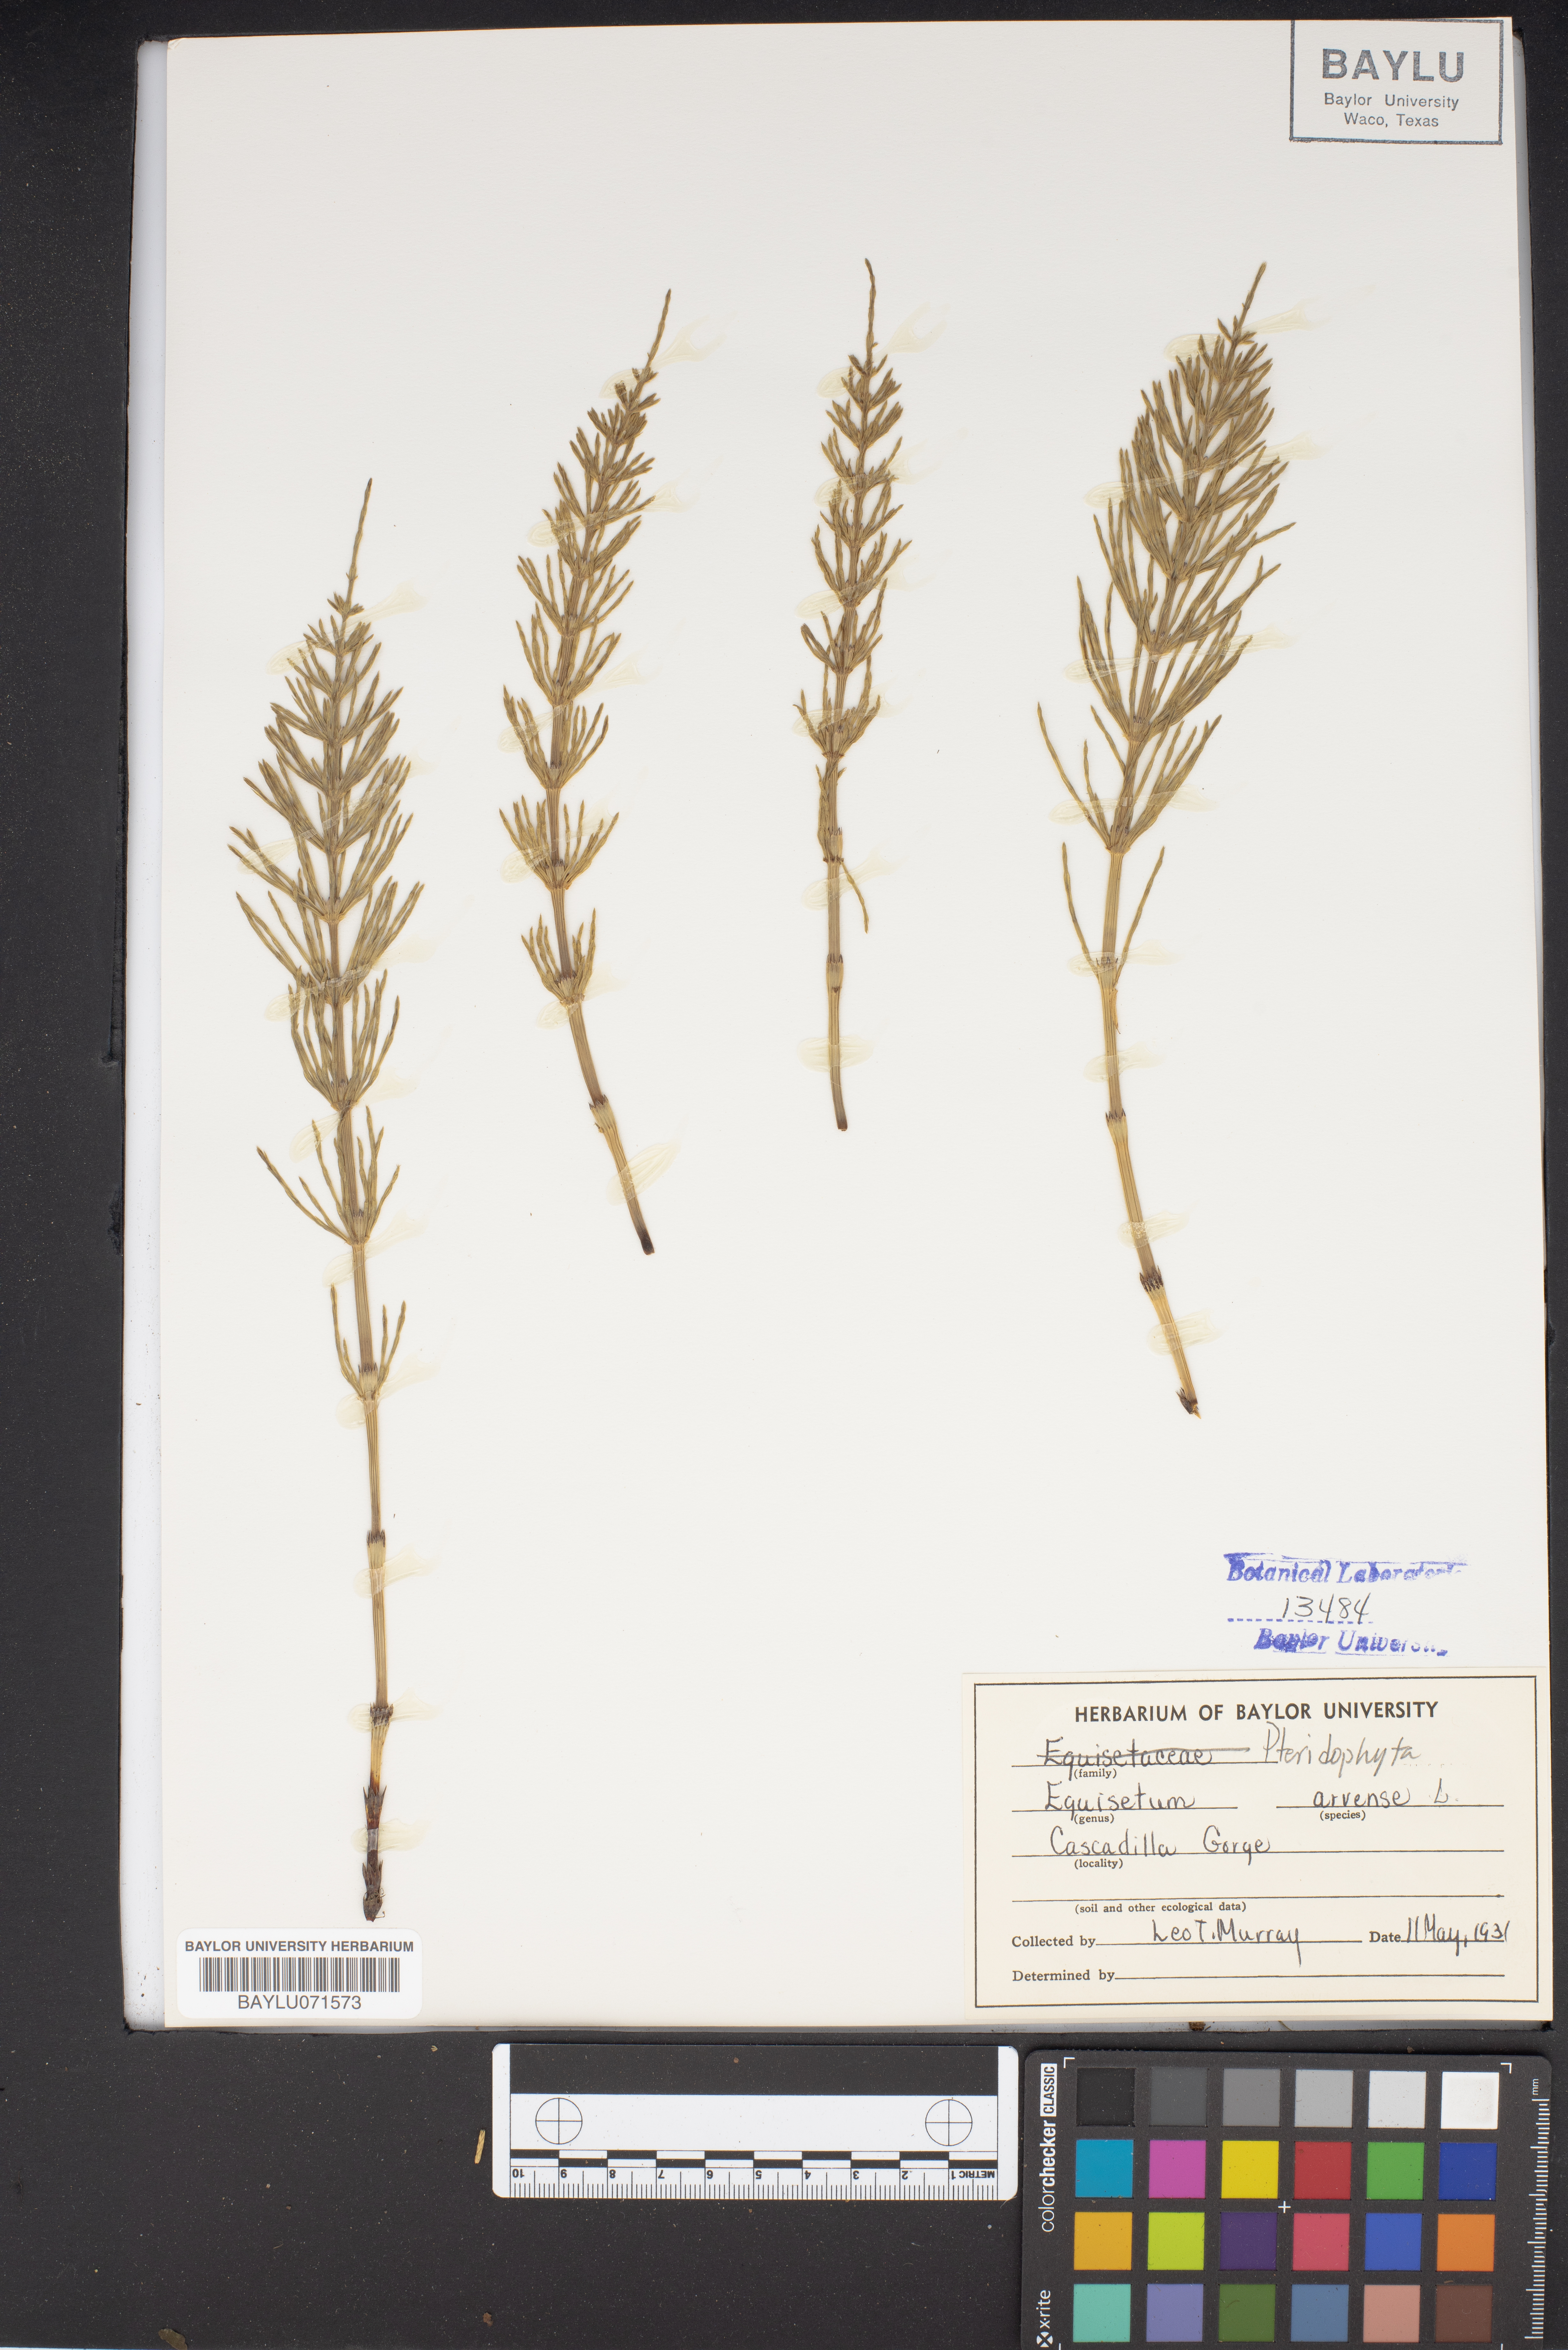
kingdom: Plantae
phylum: Tracheophyta
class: Polypodiopsida
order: Equisetales
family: Equisetaceae
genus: Equisetum
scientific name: Equisetum arvense
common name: Field horsetail
